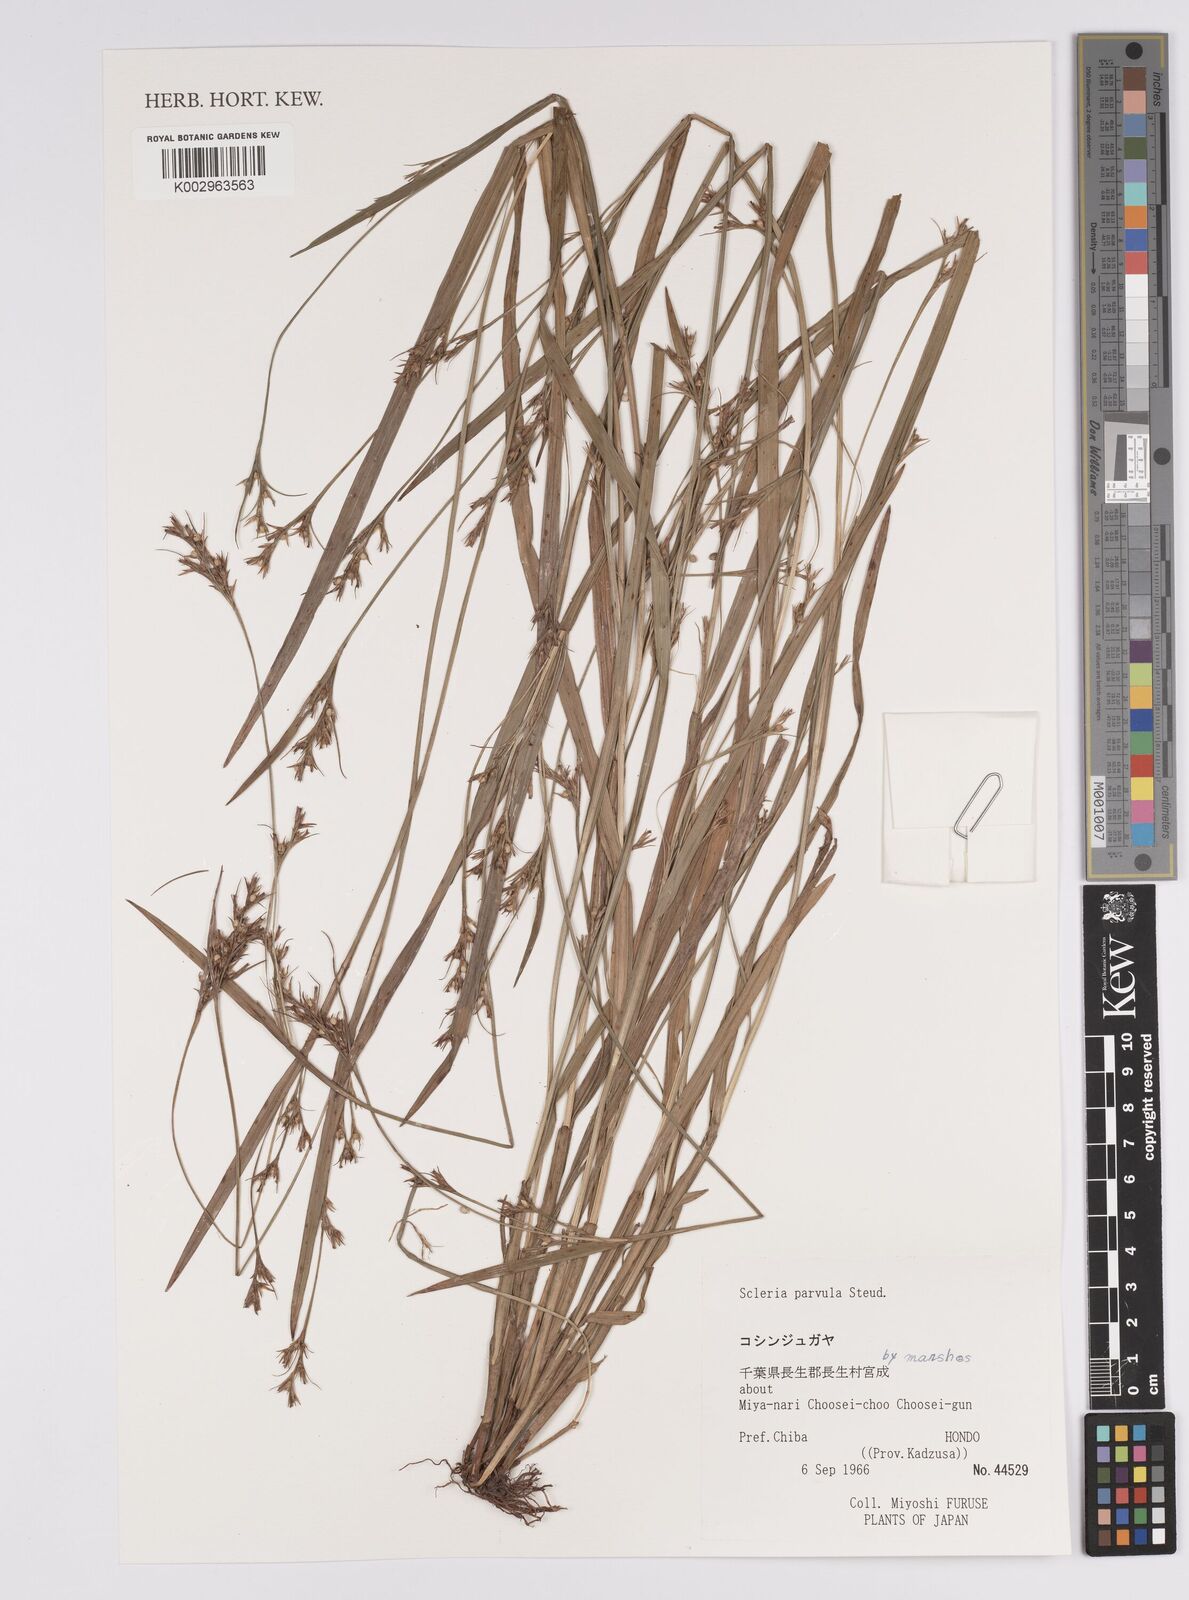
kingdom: Plantae
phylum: Tracheophyta
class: Liliopsida
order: Poales
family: Cyperaceae
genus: Scleria
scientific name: Scleria parvula
